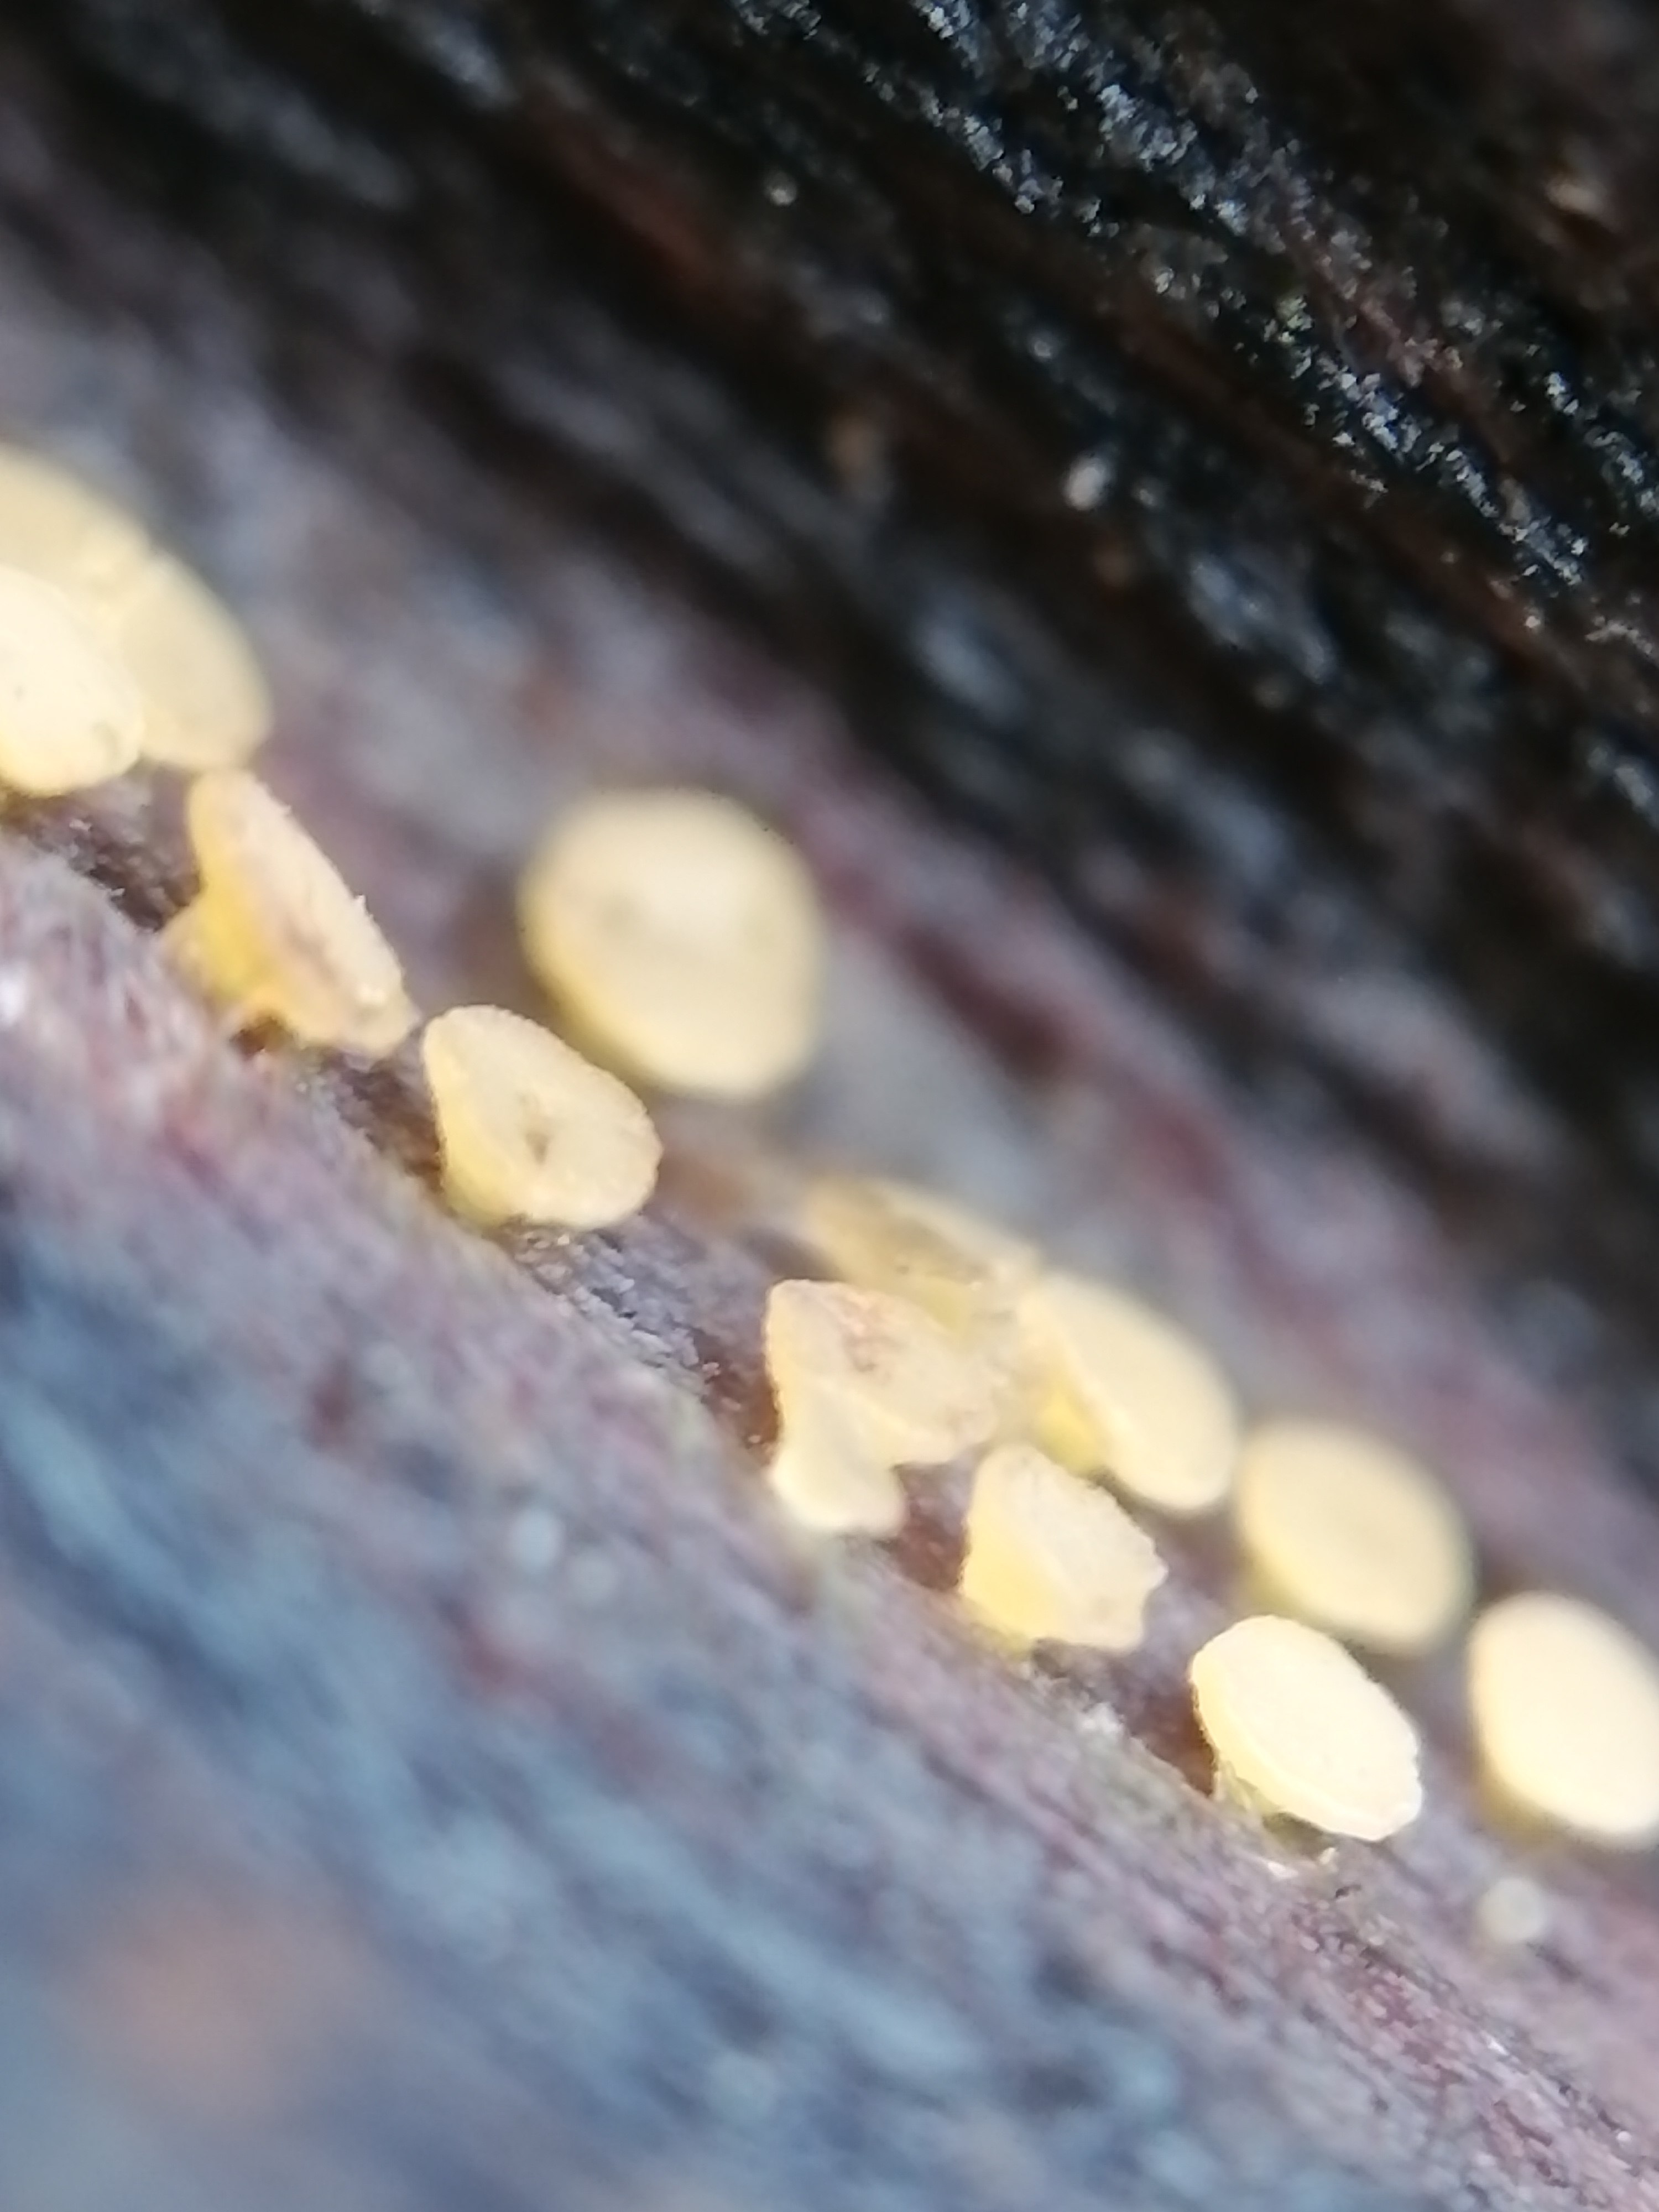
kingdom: Fungi
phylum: Ascomycota
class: Leotiomycetes
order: Helotiales
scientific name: Helotiales
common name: stilkskiveordenen
